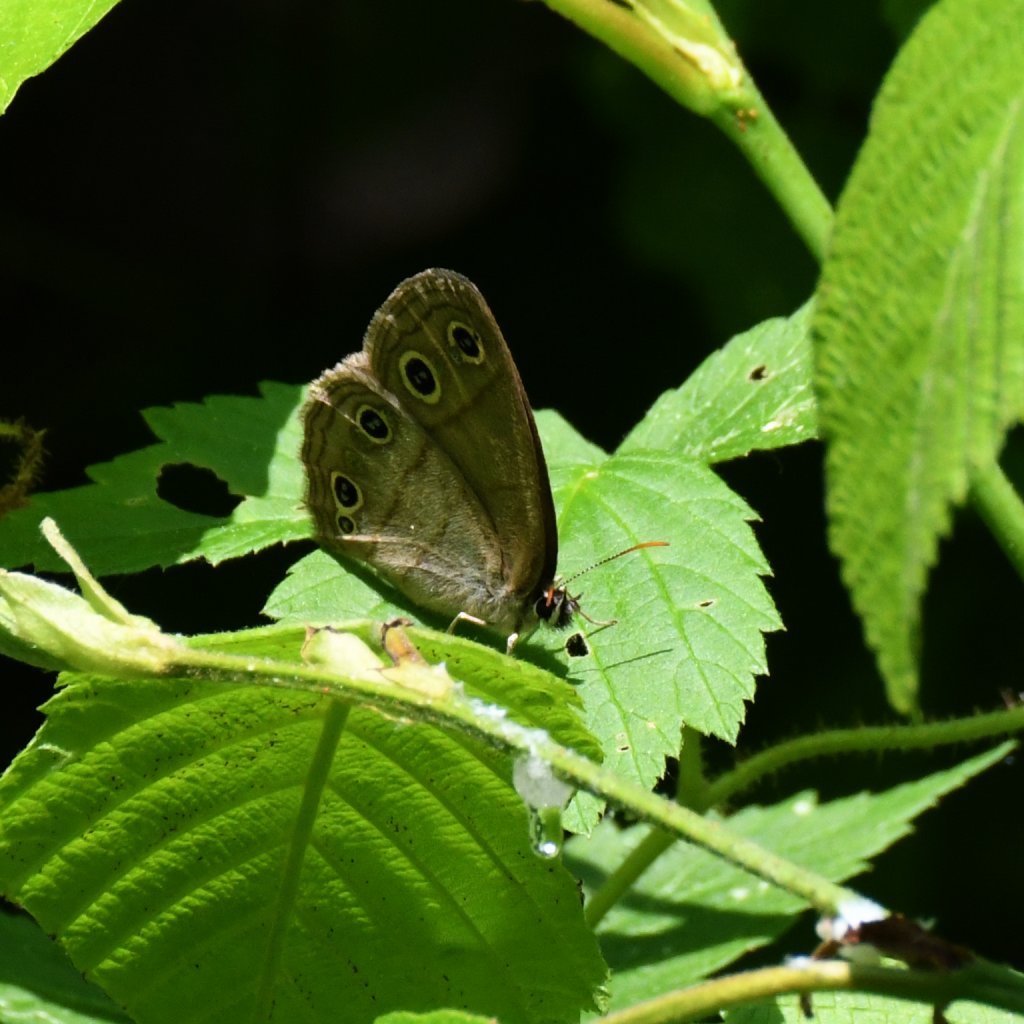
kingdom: Animalia
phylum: Arthropoda
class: Insecta
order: Lepidoptera
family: Nymphalidae
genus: Euptychia
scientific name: Euptychia cymela
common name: Little Wood Satyr
